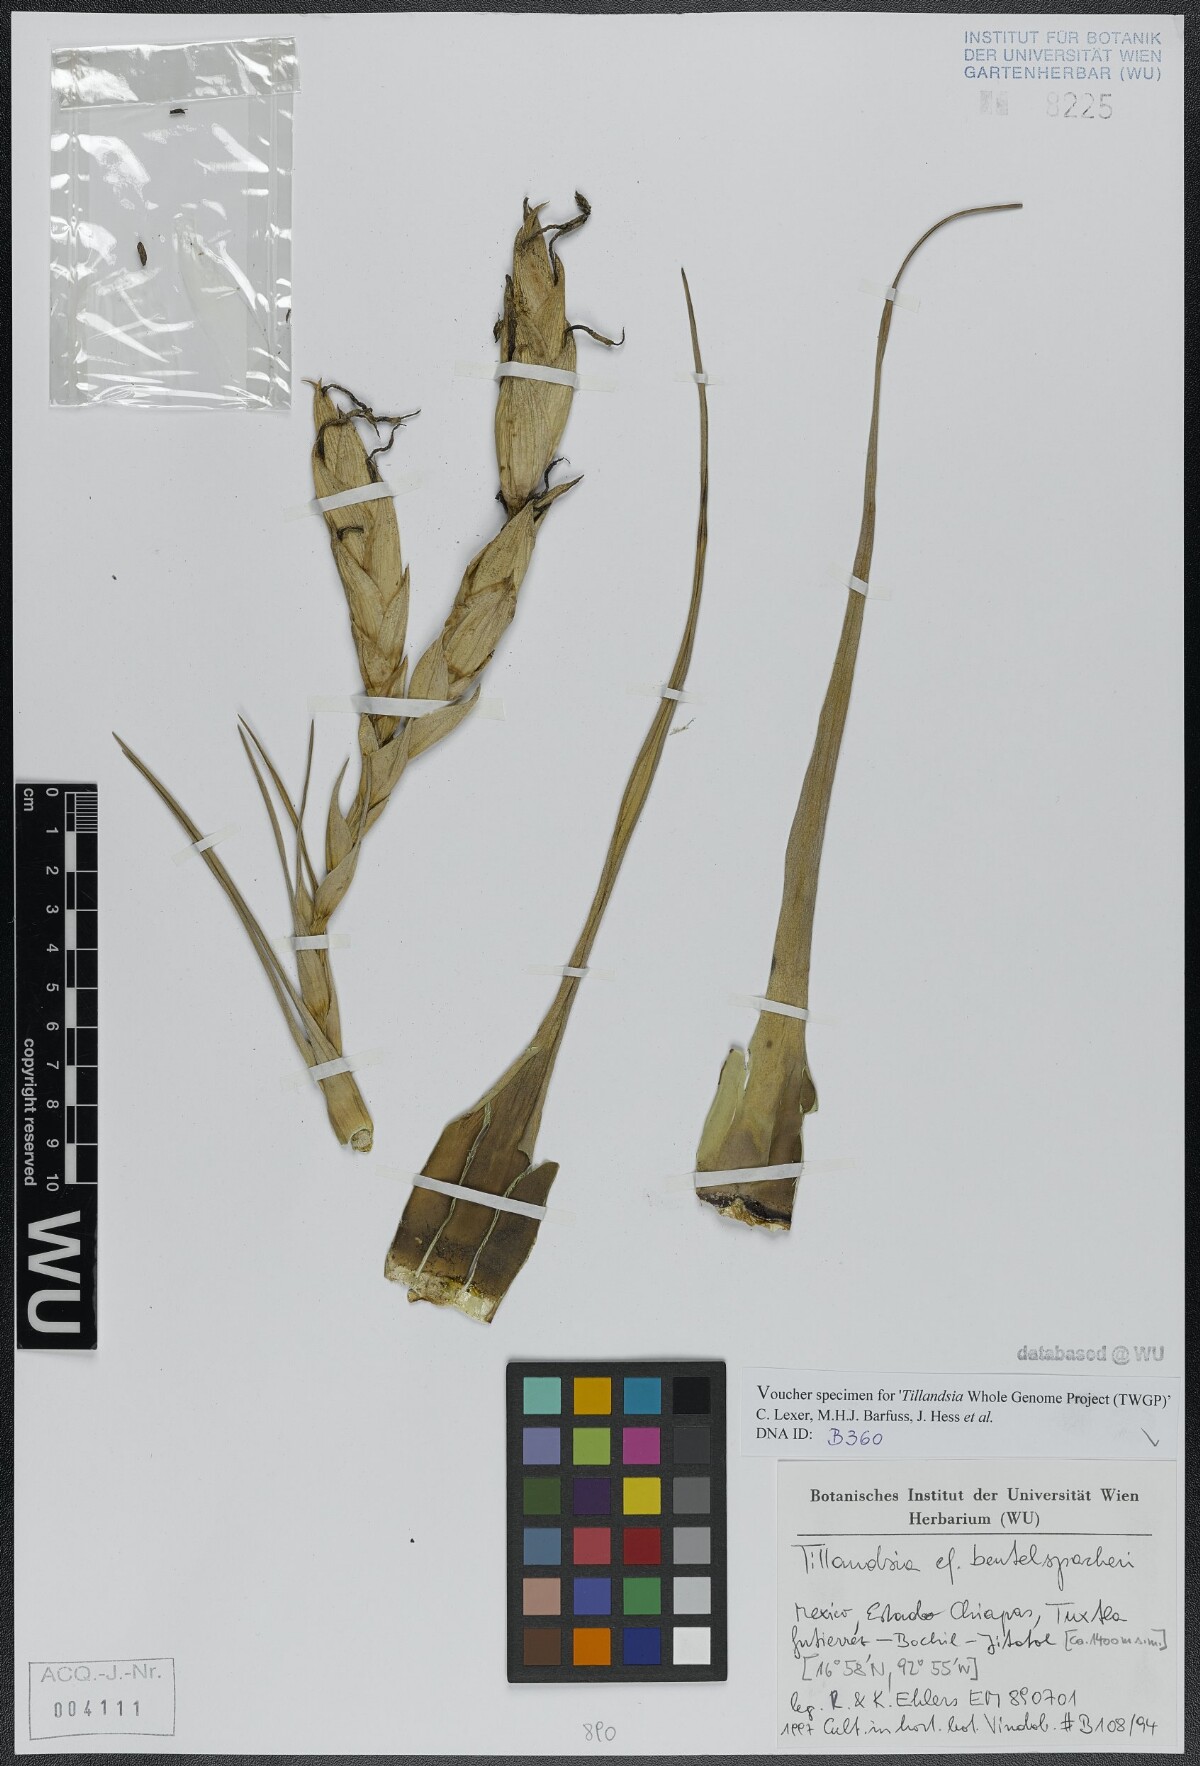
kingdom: Plantae
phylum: Tracheophyta
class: Liliopsida
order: Poales
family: Bromeliaceae
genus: Tillandsia
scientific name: Tillandsia fasciculata
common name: Giant airplant
